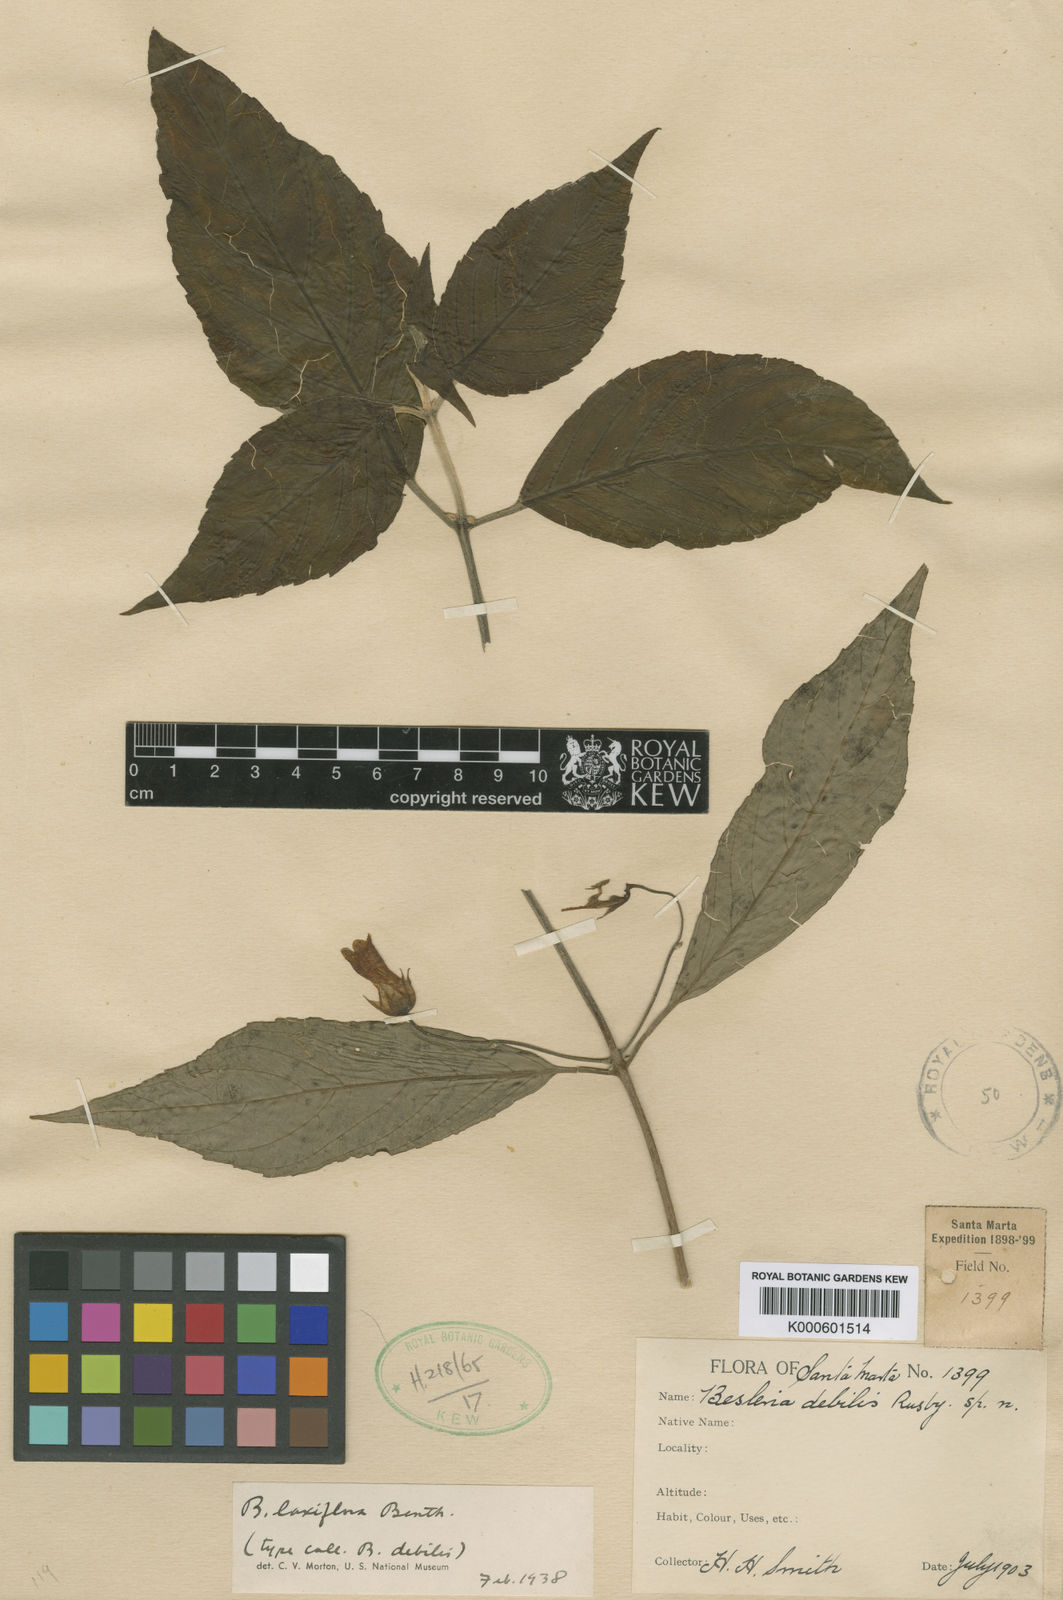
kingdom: Plantae
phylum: Tracheophyta
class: Magnoliopsida
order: Lamiales
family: Gesneriaceae
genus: Besleria
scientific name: Besleria laxiflora
